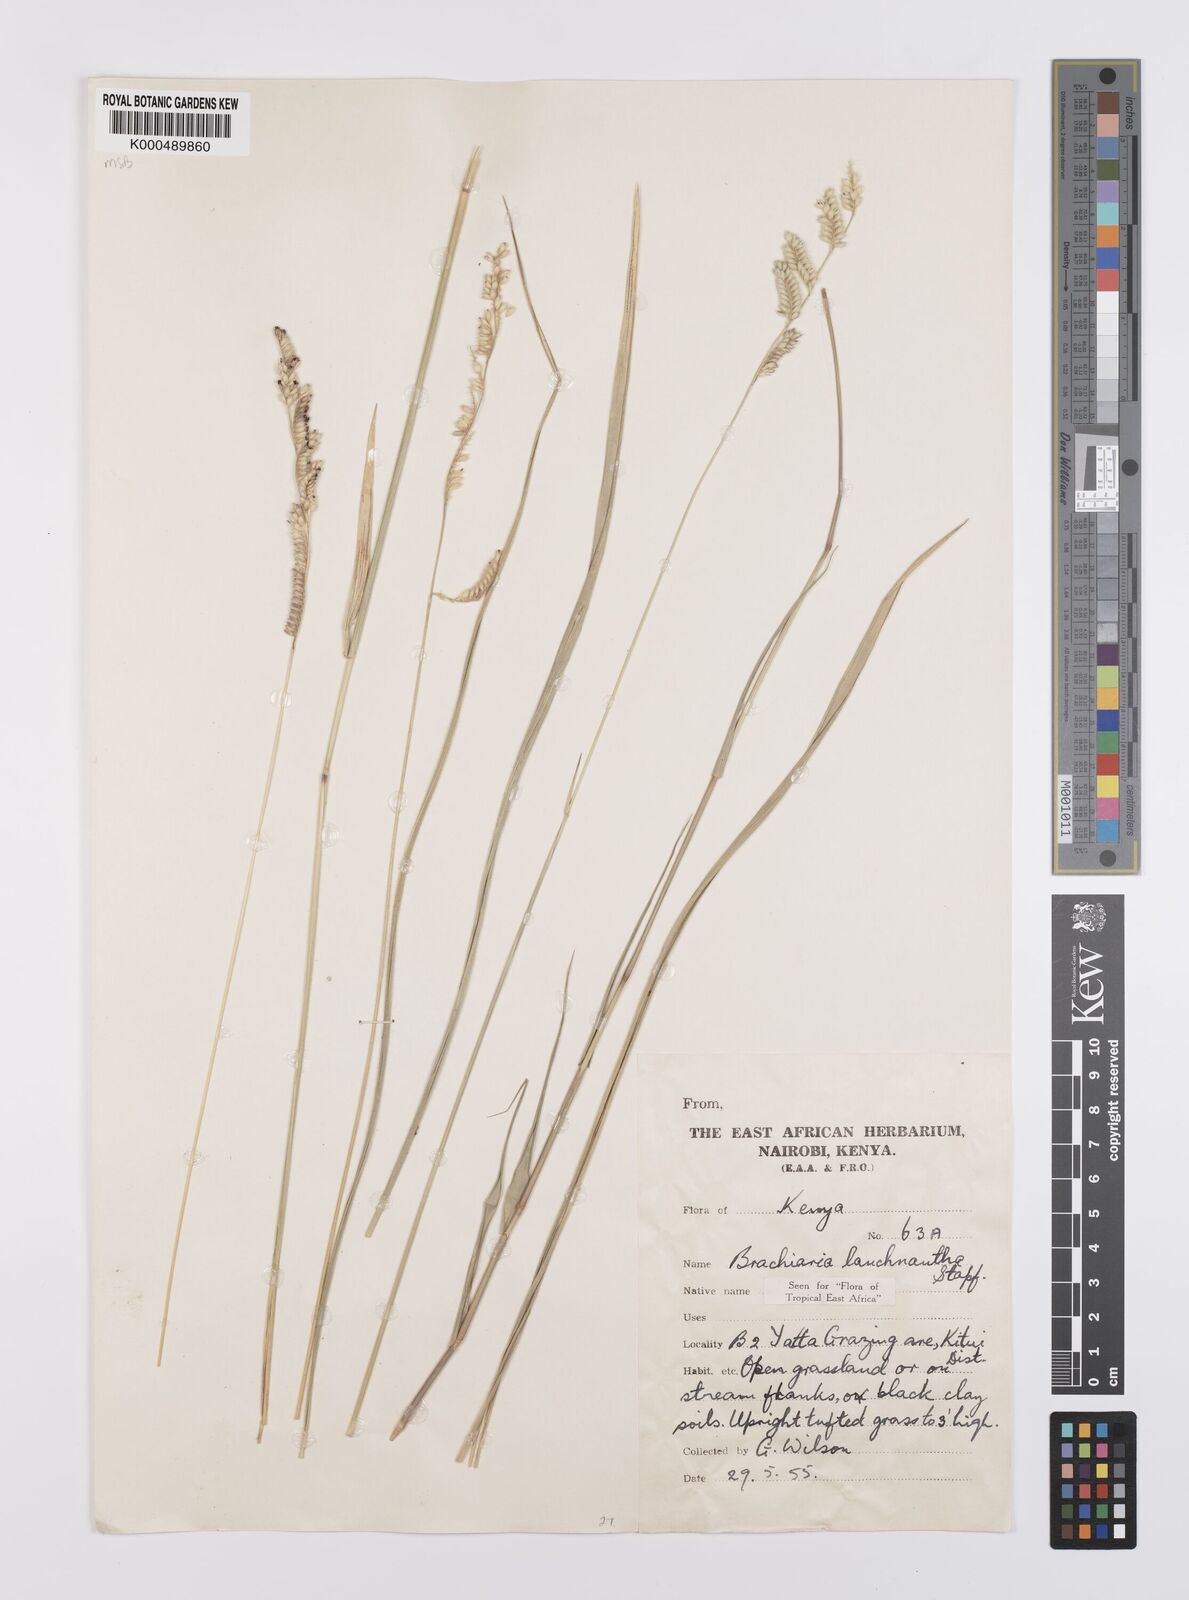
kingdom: Plantae
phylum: Tracheophyta
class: Liliopsida
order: Poales
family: Poaceae
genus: Urochloa
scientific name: Urochloa lachnantha
